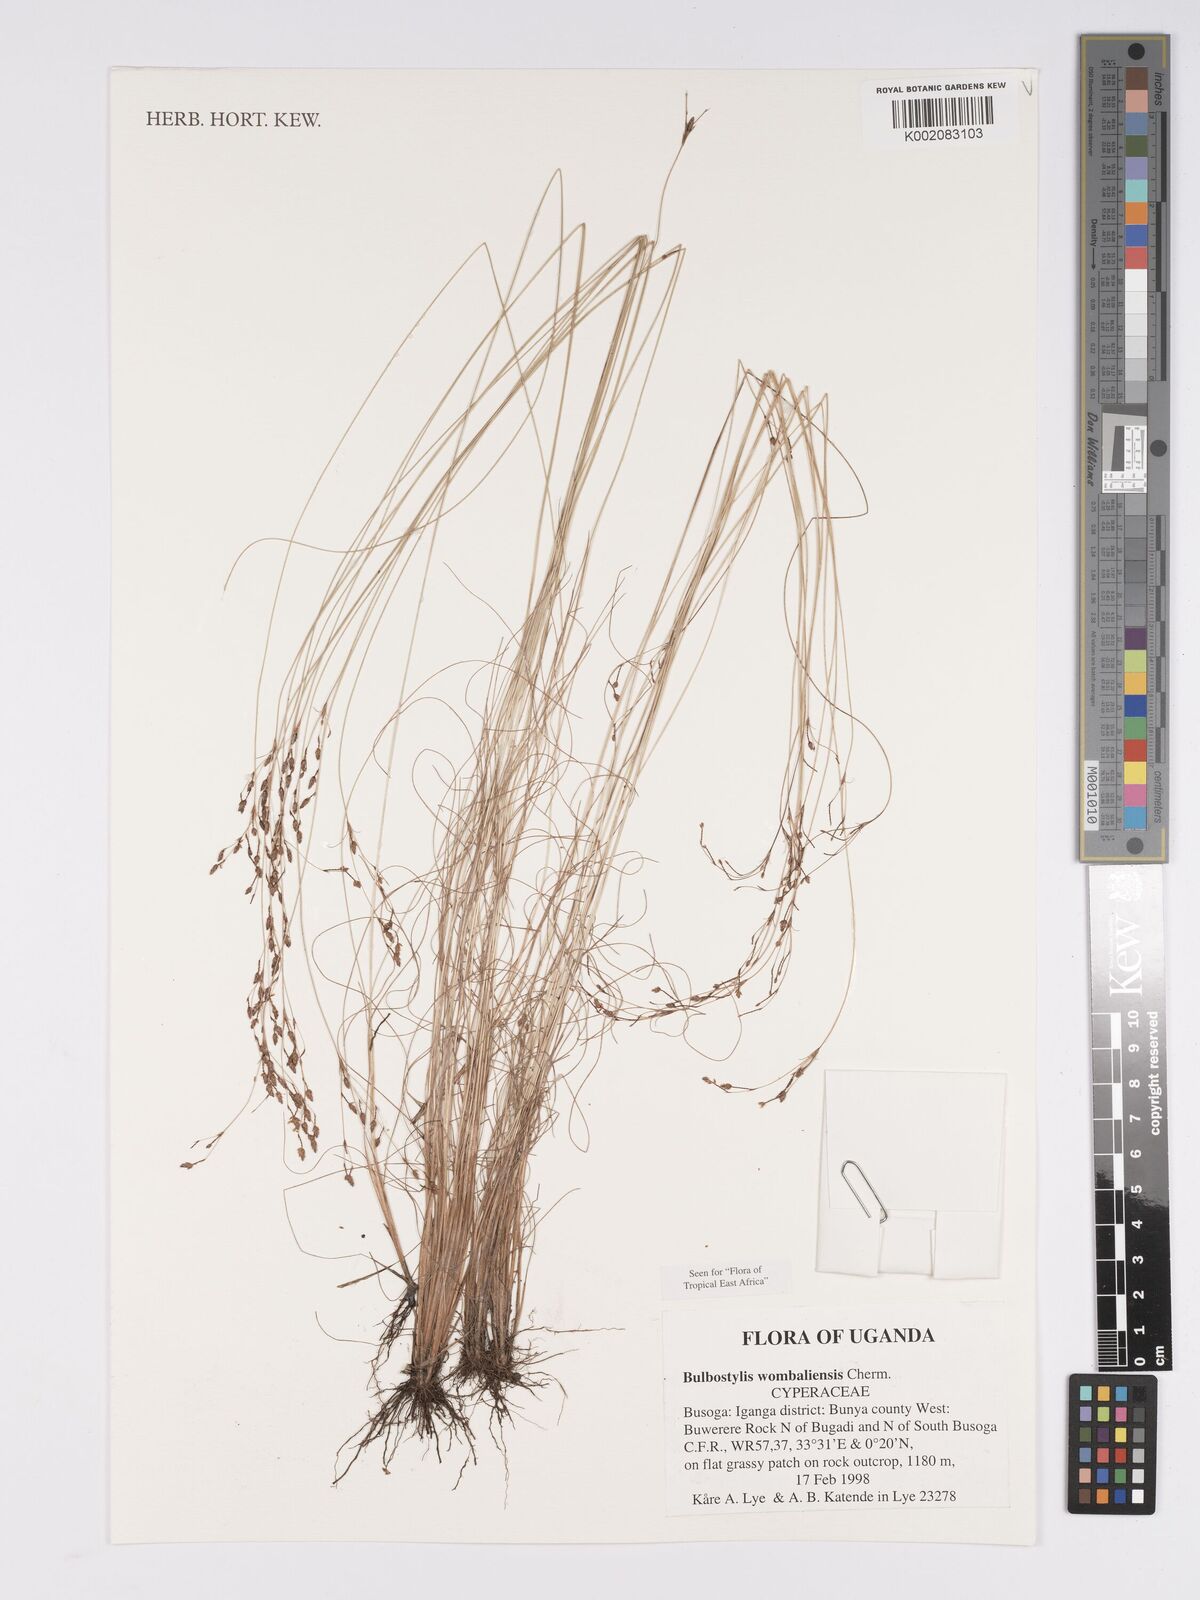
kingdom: Plantae
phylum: Tracheophyta
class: Liliopsida
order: Poales
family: Cyperaceae
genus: Bulbostylis
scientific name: Bulbostylis
